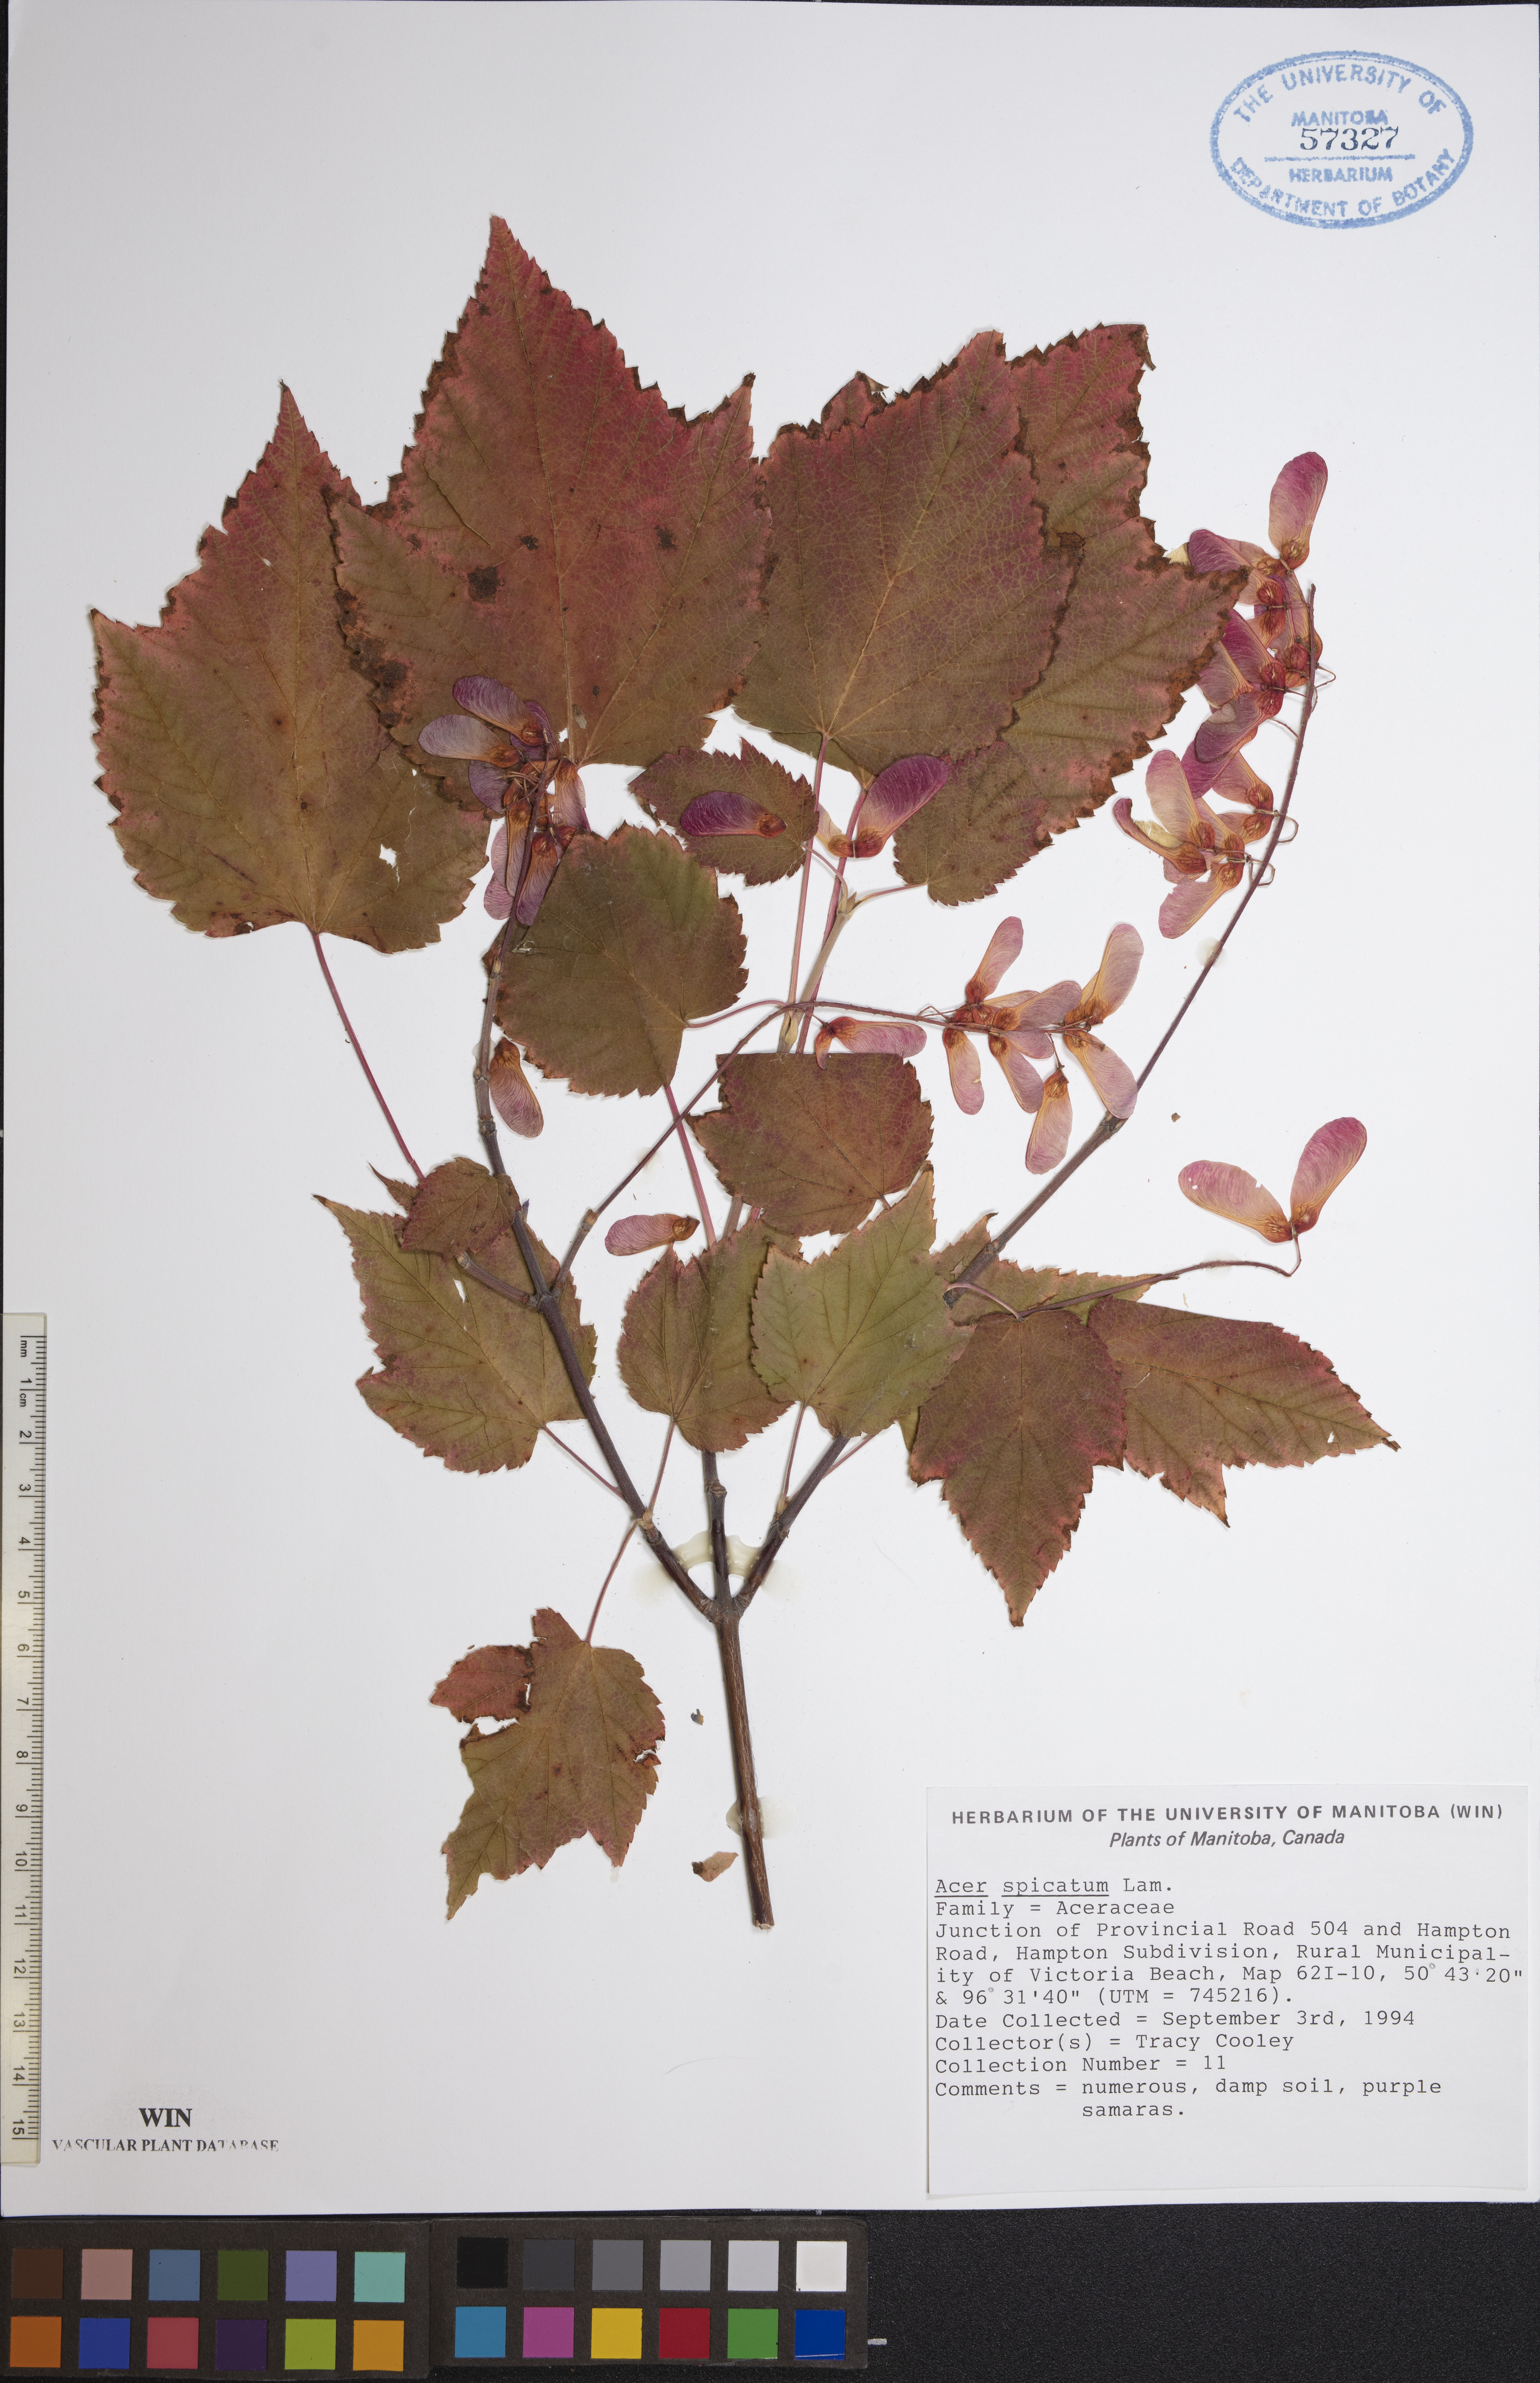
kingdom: Plantae
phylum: Tracheophyta
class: Magnoliopsida
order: Sapindales
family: Sapindaceae
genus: Acer
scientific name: Acer spicatum
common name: Mountain maple
